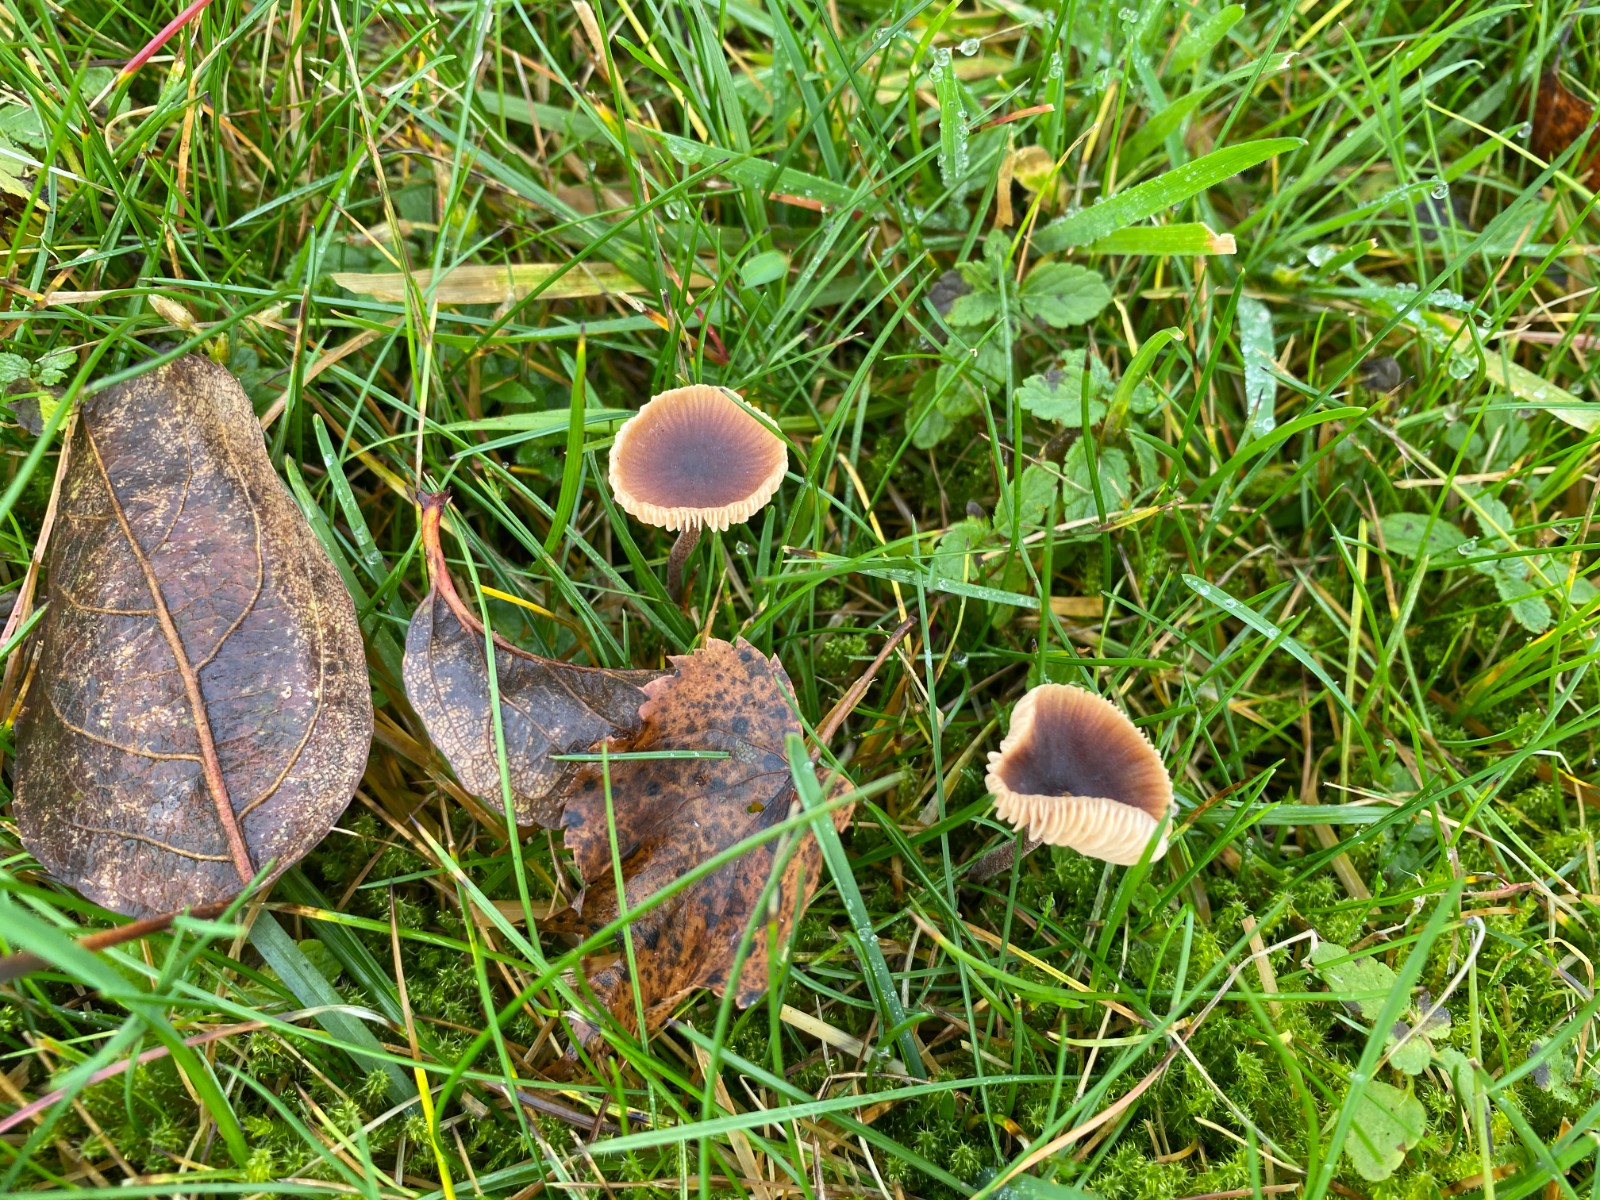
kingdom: Fungi
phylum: Basidiomycota
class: Agaricomycetes
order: Agaricales
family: Macrocystidiaceae
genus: Macrocystidia
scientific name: Macrocystidia cucumis
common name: agurkehat
